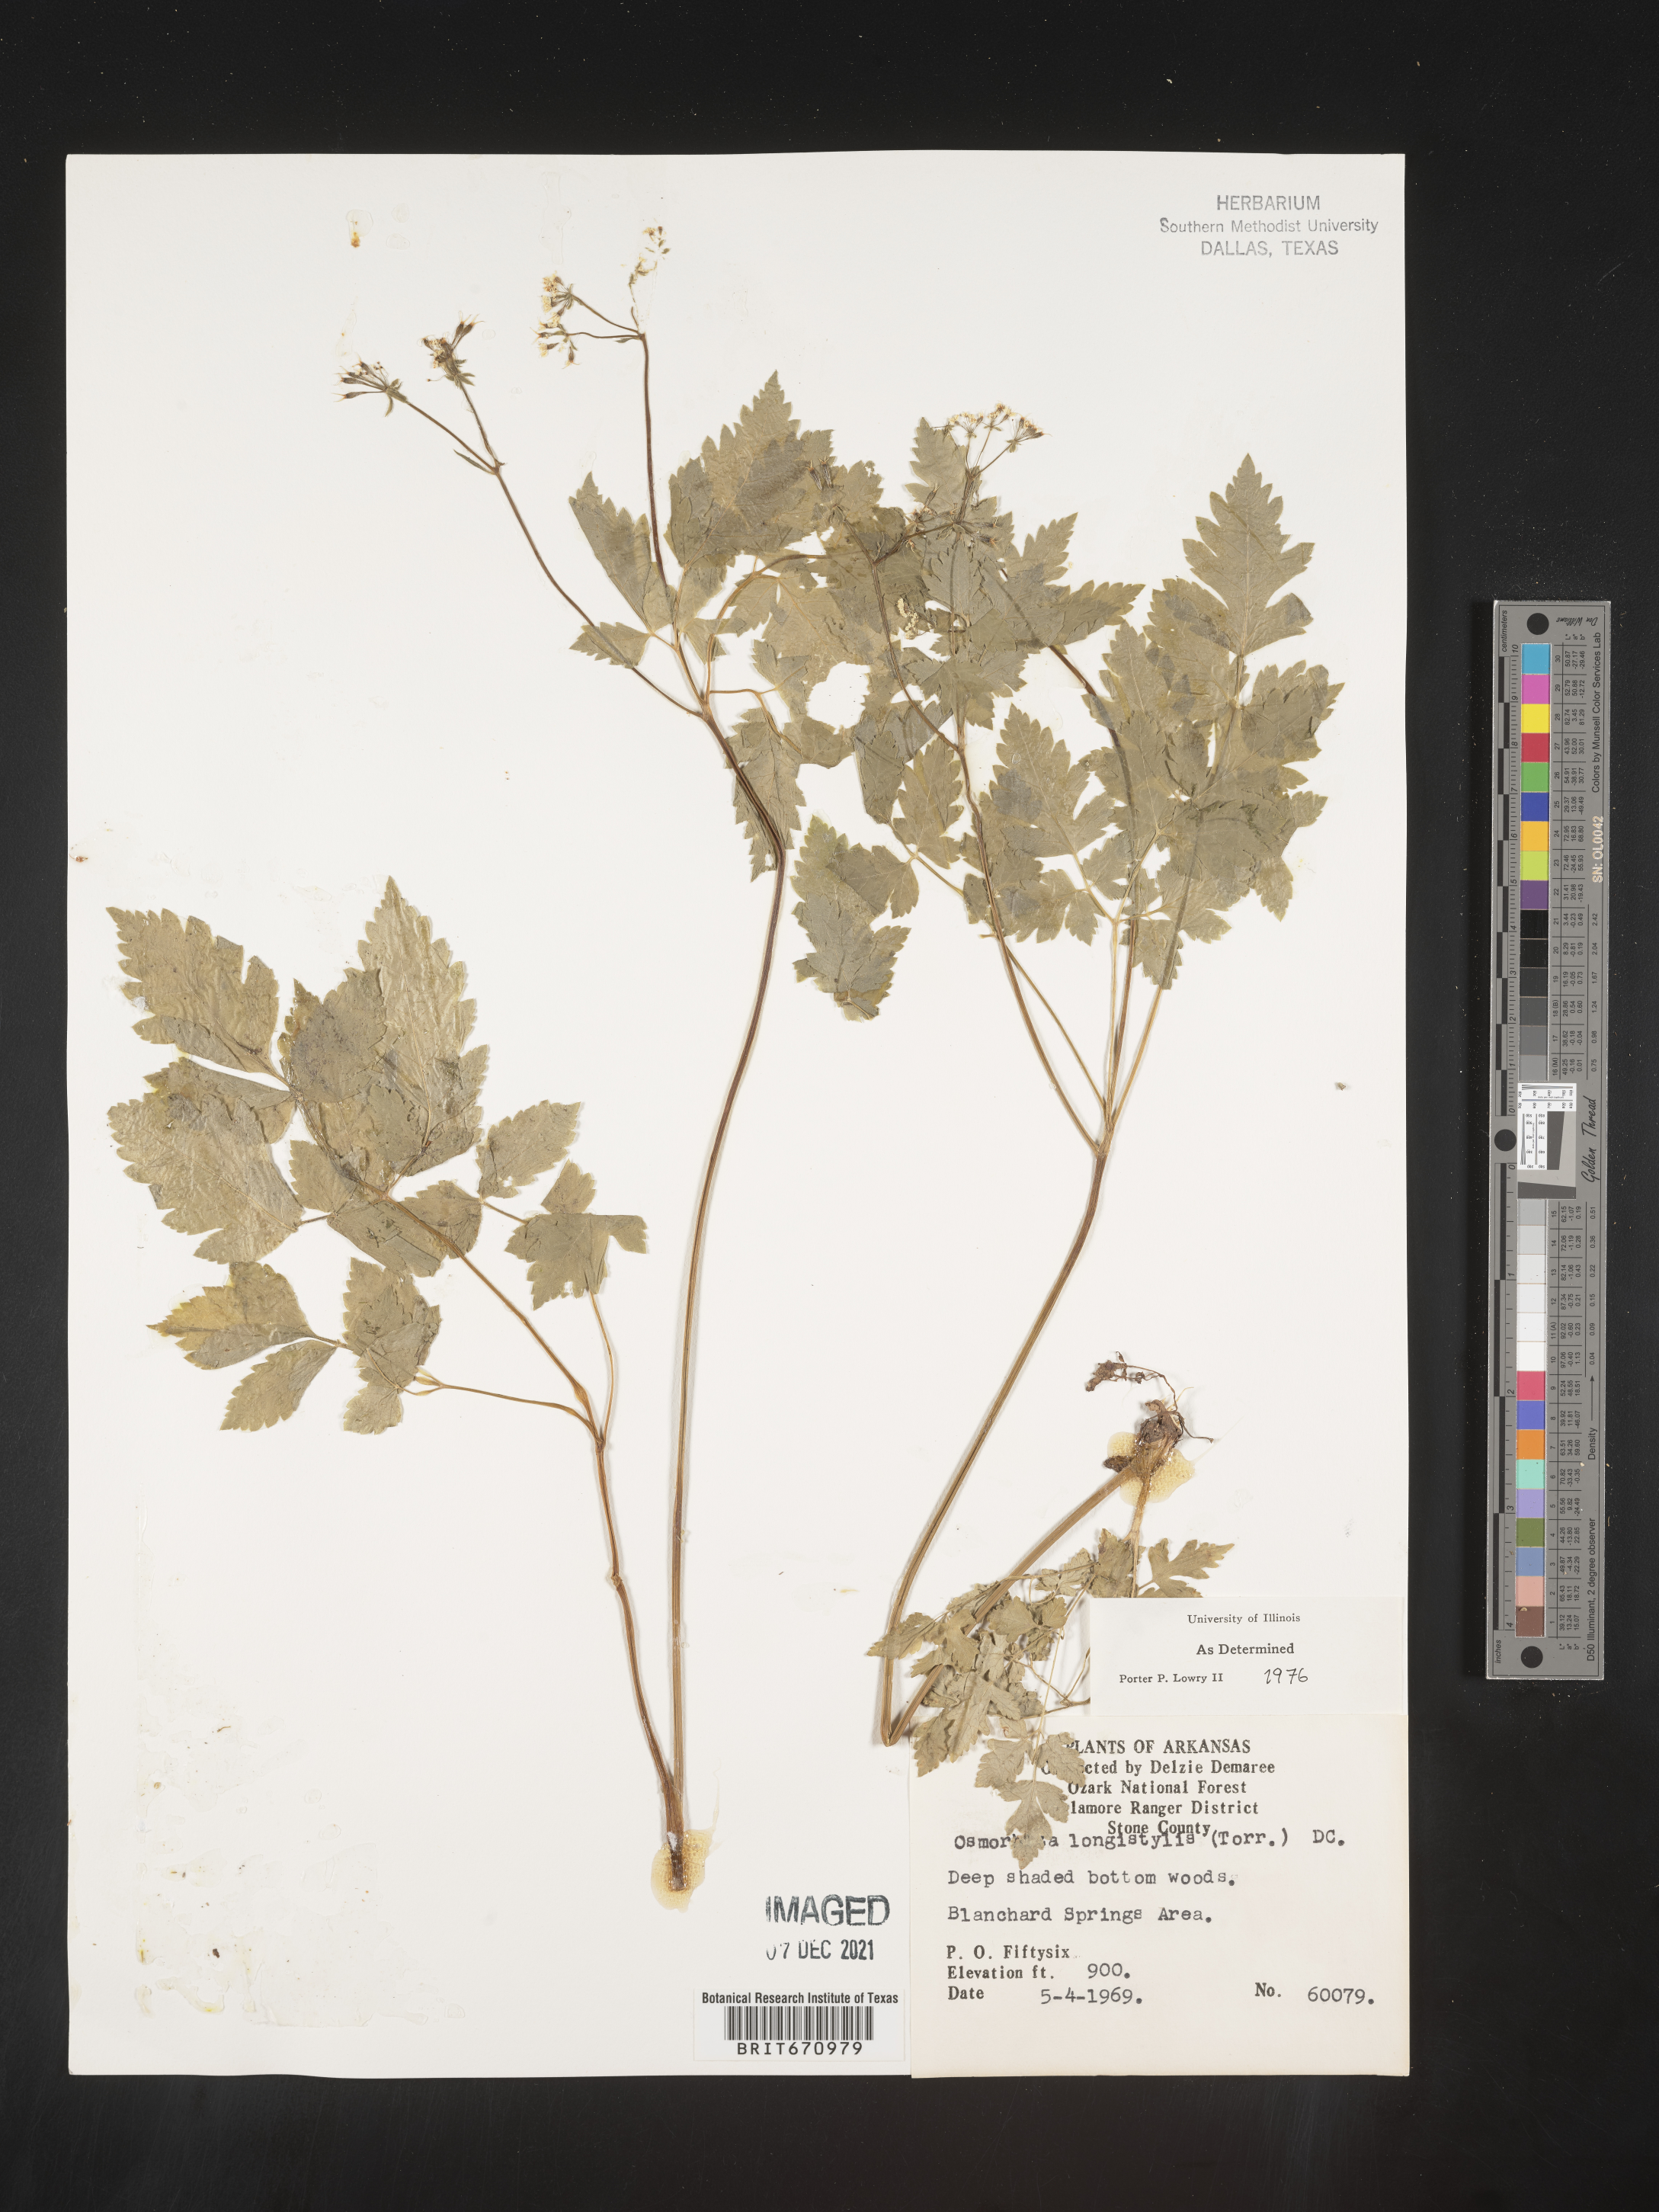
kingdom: Plantae
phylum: Tracheophyta
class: Magnoliopsida
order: Apiales
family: Apiaceae
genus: Osmorhiza
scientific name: Osmorhiza longistylis
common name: Smooth sweet cicely
